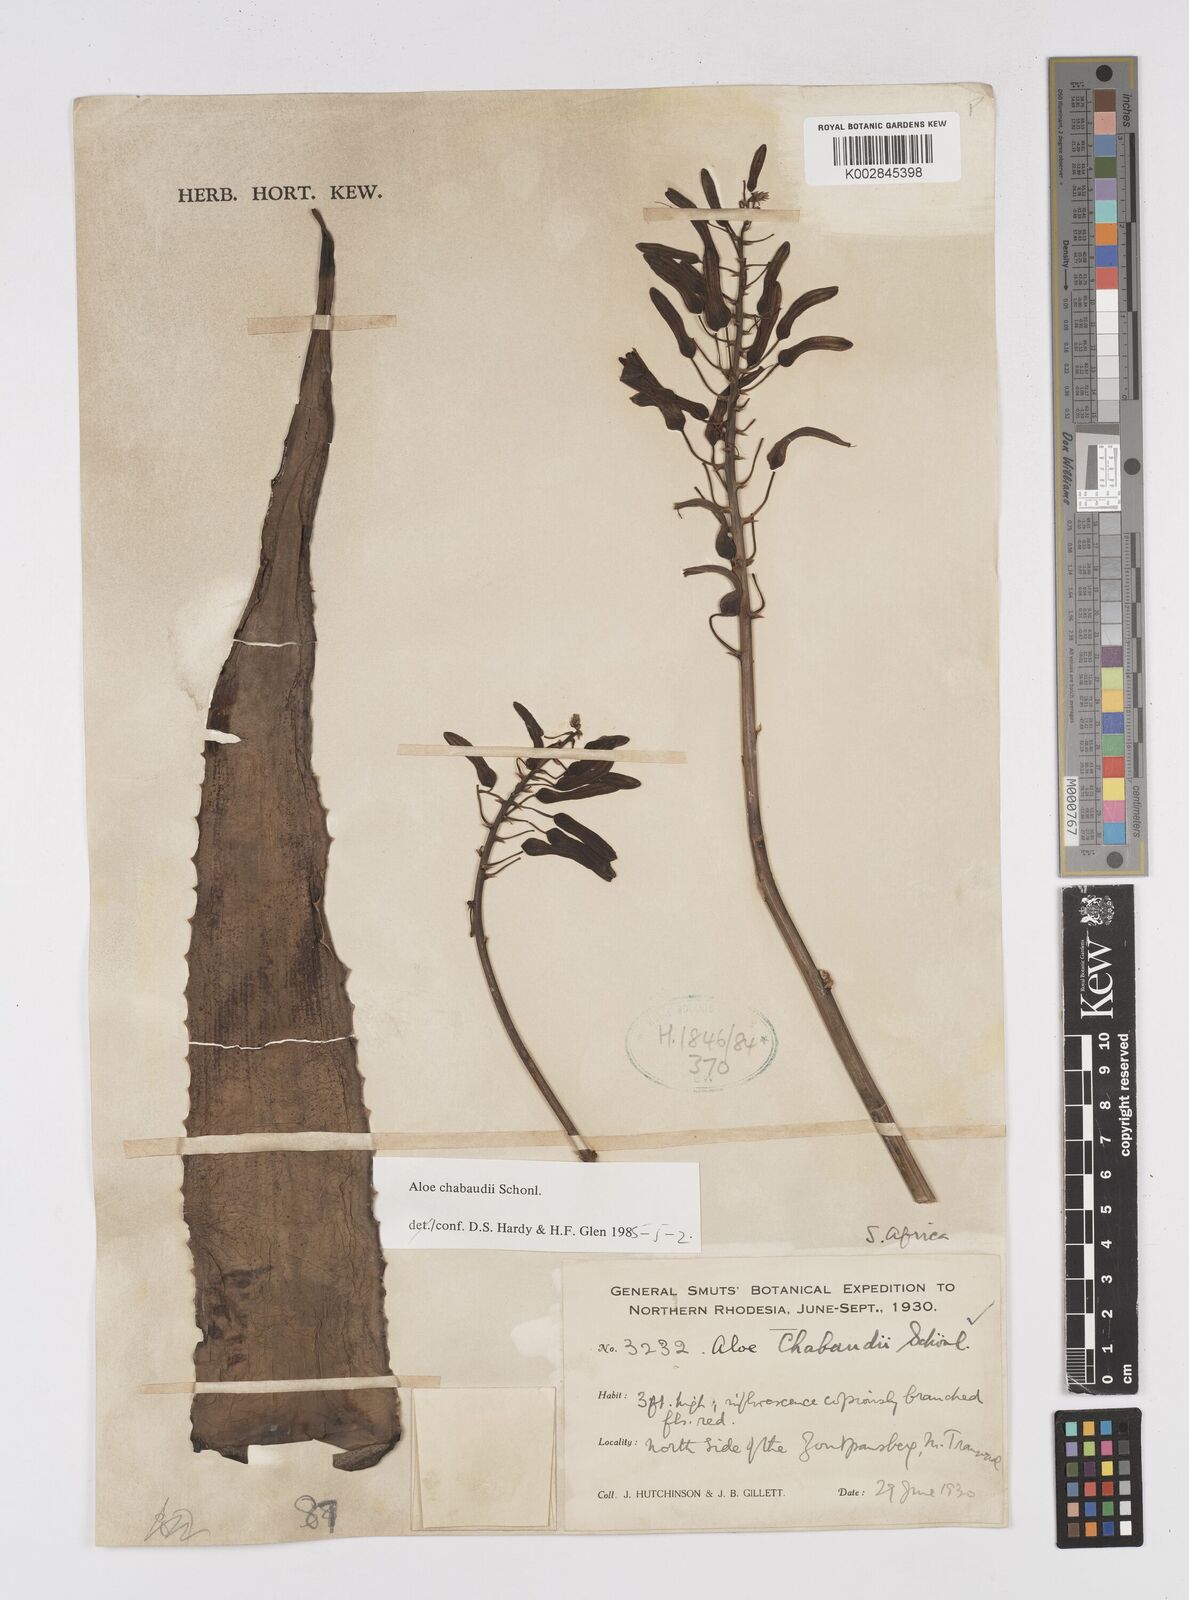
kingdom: Plantae
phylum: Tracheophyta
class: Liliopsida
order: Asparagales
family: Asphodelaceae
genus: Aloe
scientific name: Aloe chabaudii
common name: Chabaud's aloe
